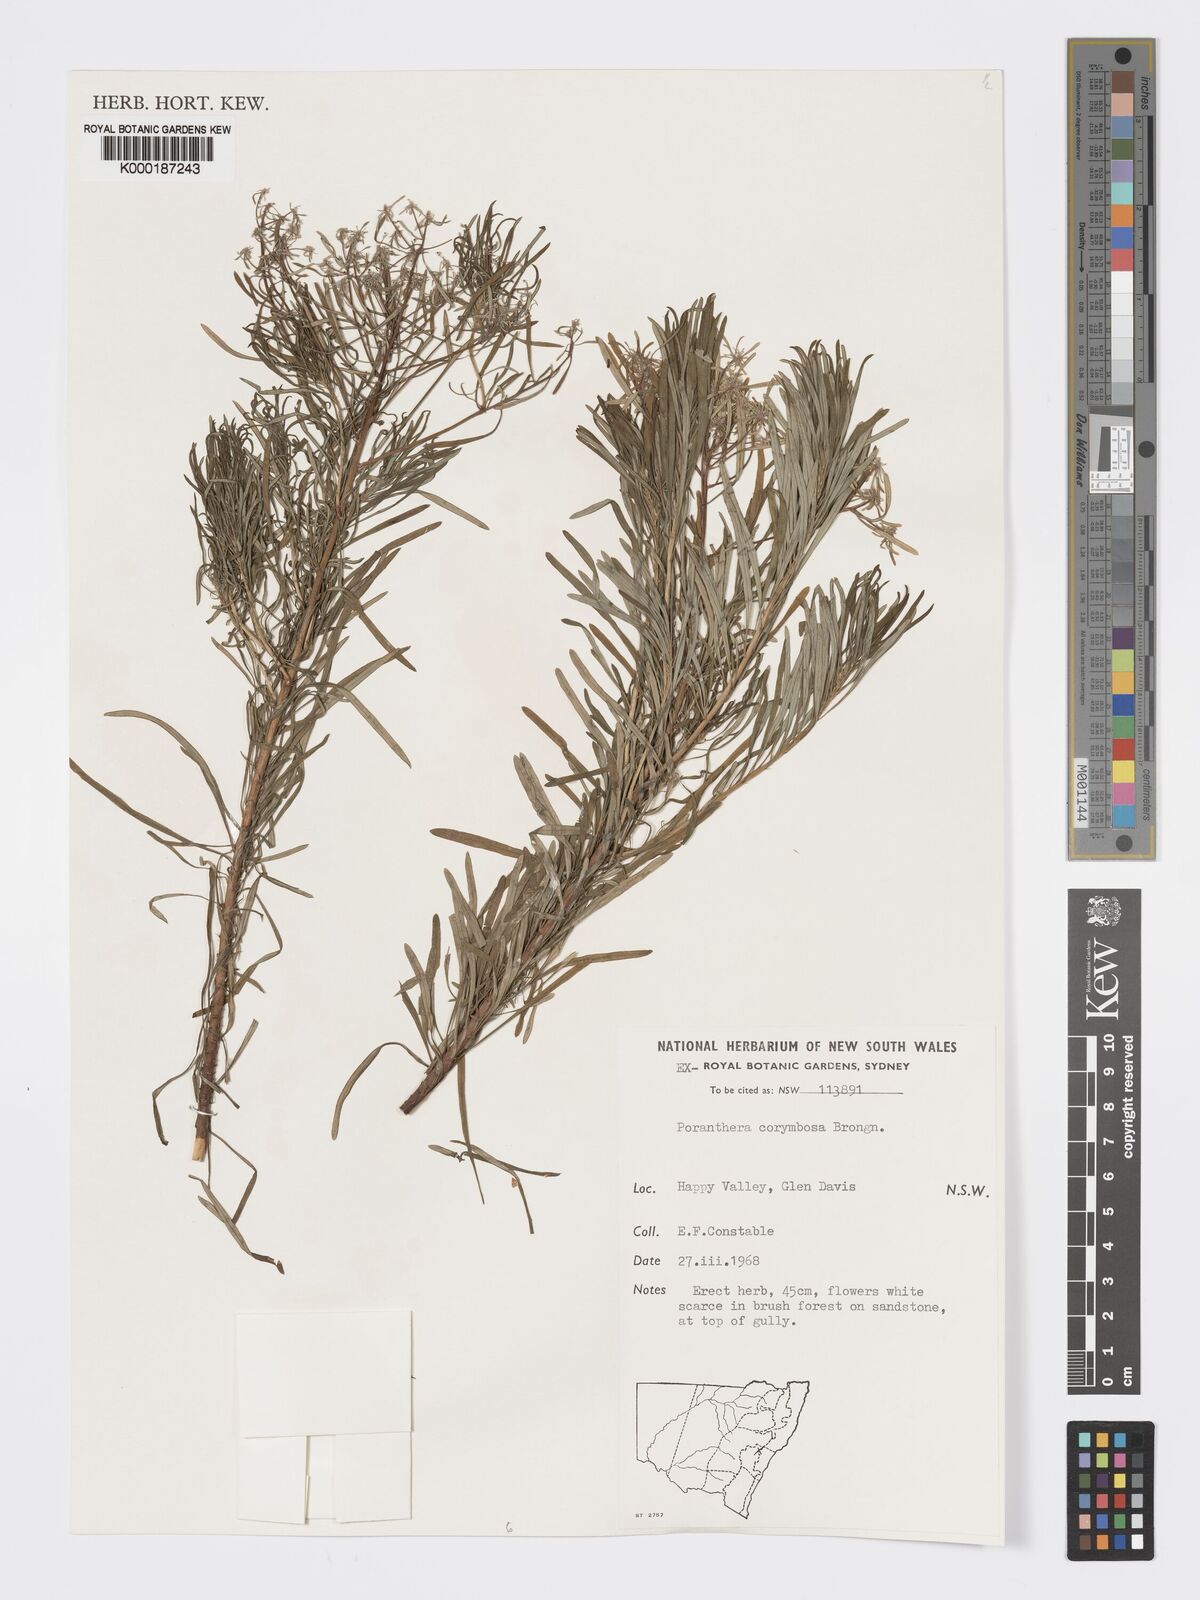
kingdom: Plantae
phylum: Tracheophyta
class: Magnoliopsida
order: Malpighiales
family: Phyllanthaceae
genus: Poranthera
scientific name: Poranthera corymbosa
